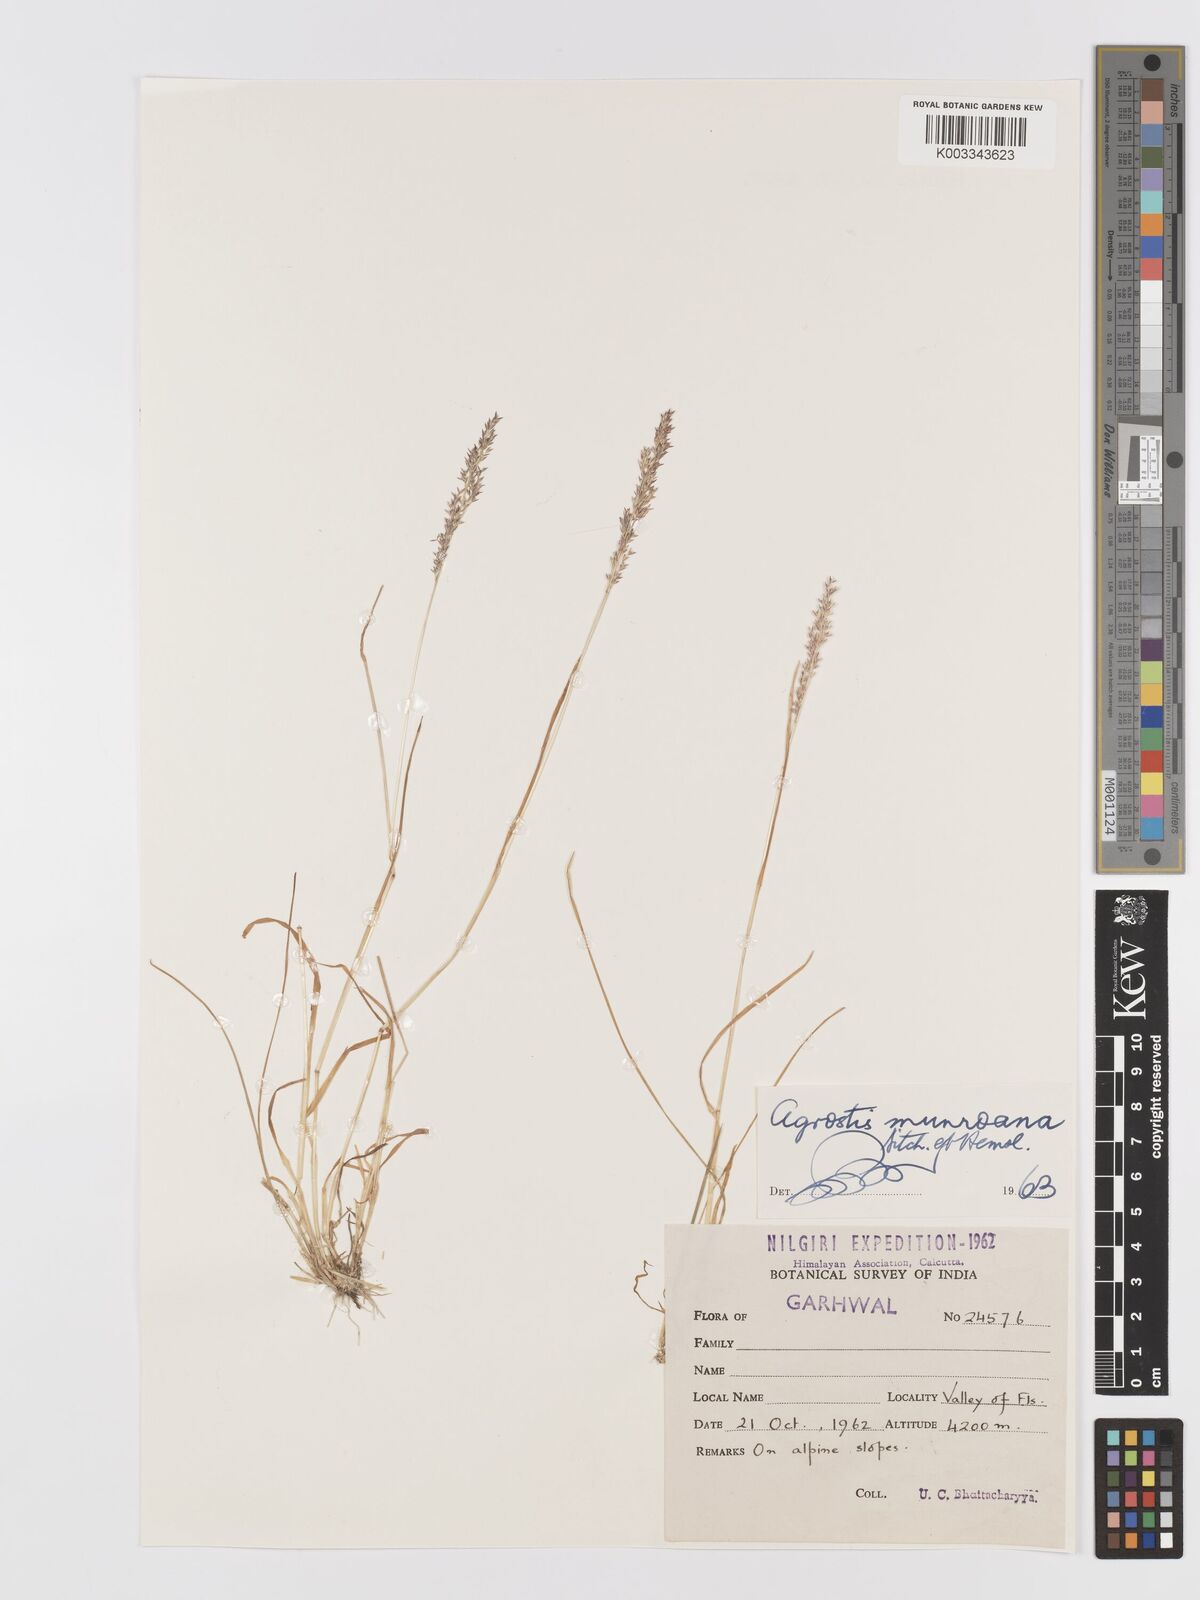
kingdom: Plantae
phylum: Tracheophyta
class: Liliopsida
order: Poales
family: Poaceae
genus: Agrostis
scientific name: Agrostis munroana
